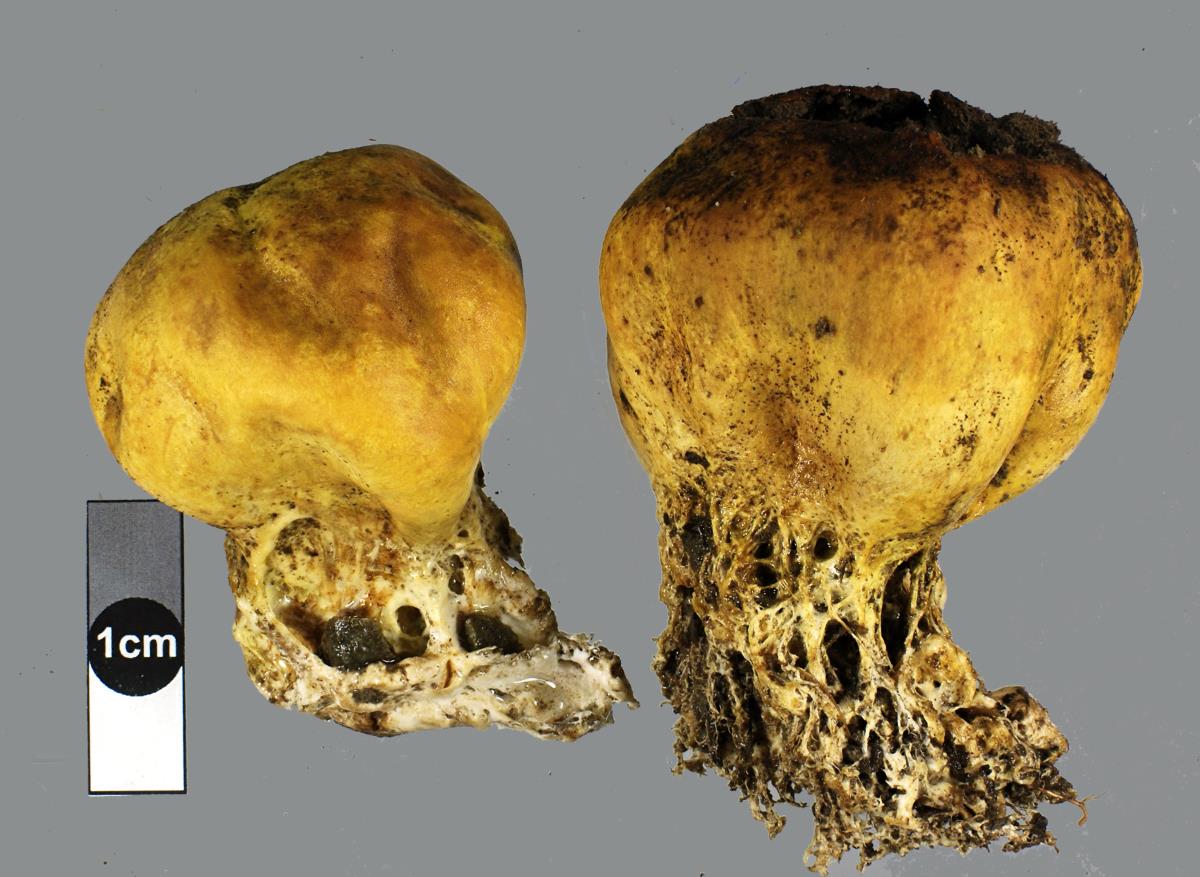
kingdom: Fungi
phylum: Basidiomycota
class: Agaricomycetes
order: Boletales
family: Sclerodermataceae
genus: Scleroderma
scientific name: Scleroderma bovista
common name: Potato earthball
